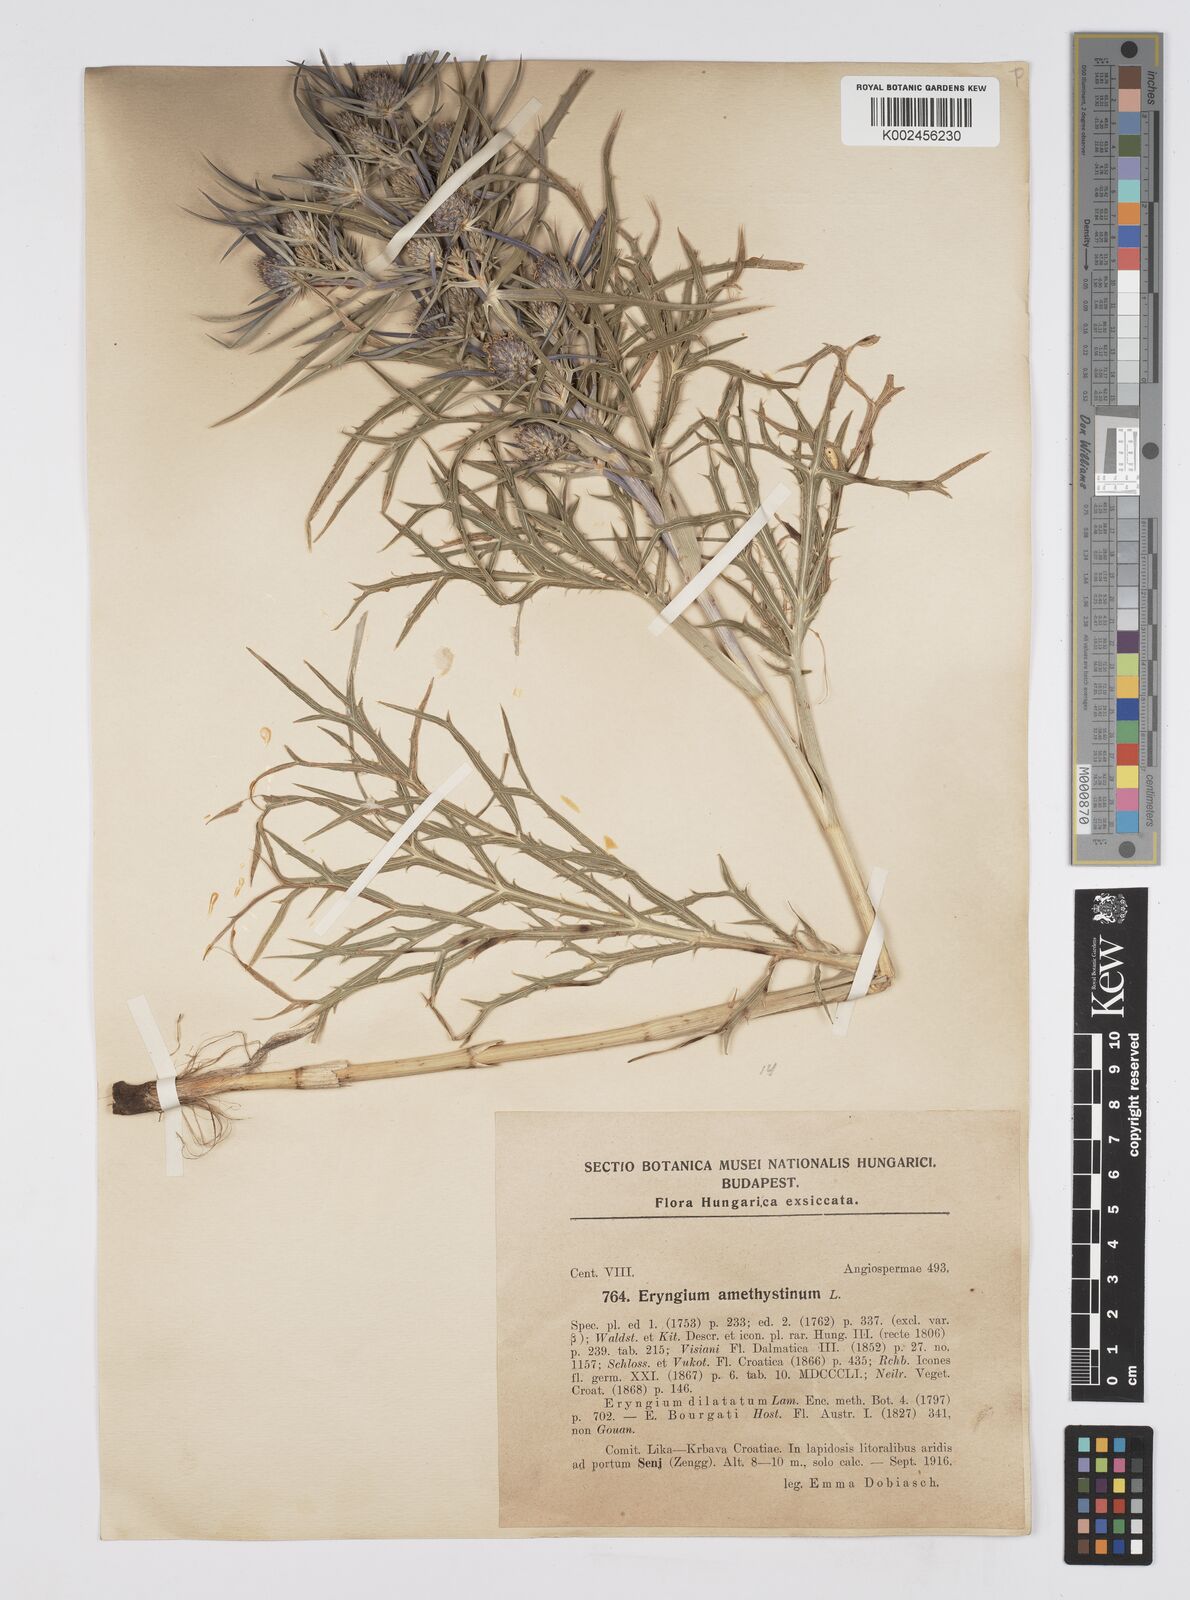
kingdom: Plantae
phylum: Tracheophyta
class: Magnoliopsida
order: Apiales
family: Apiaceae
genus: Eryngium
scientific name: Eryngium amethystinum
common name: Amethyst eryngo
